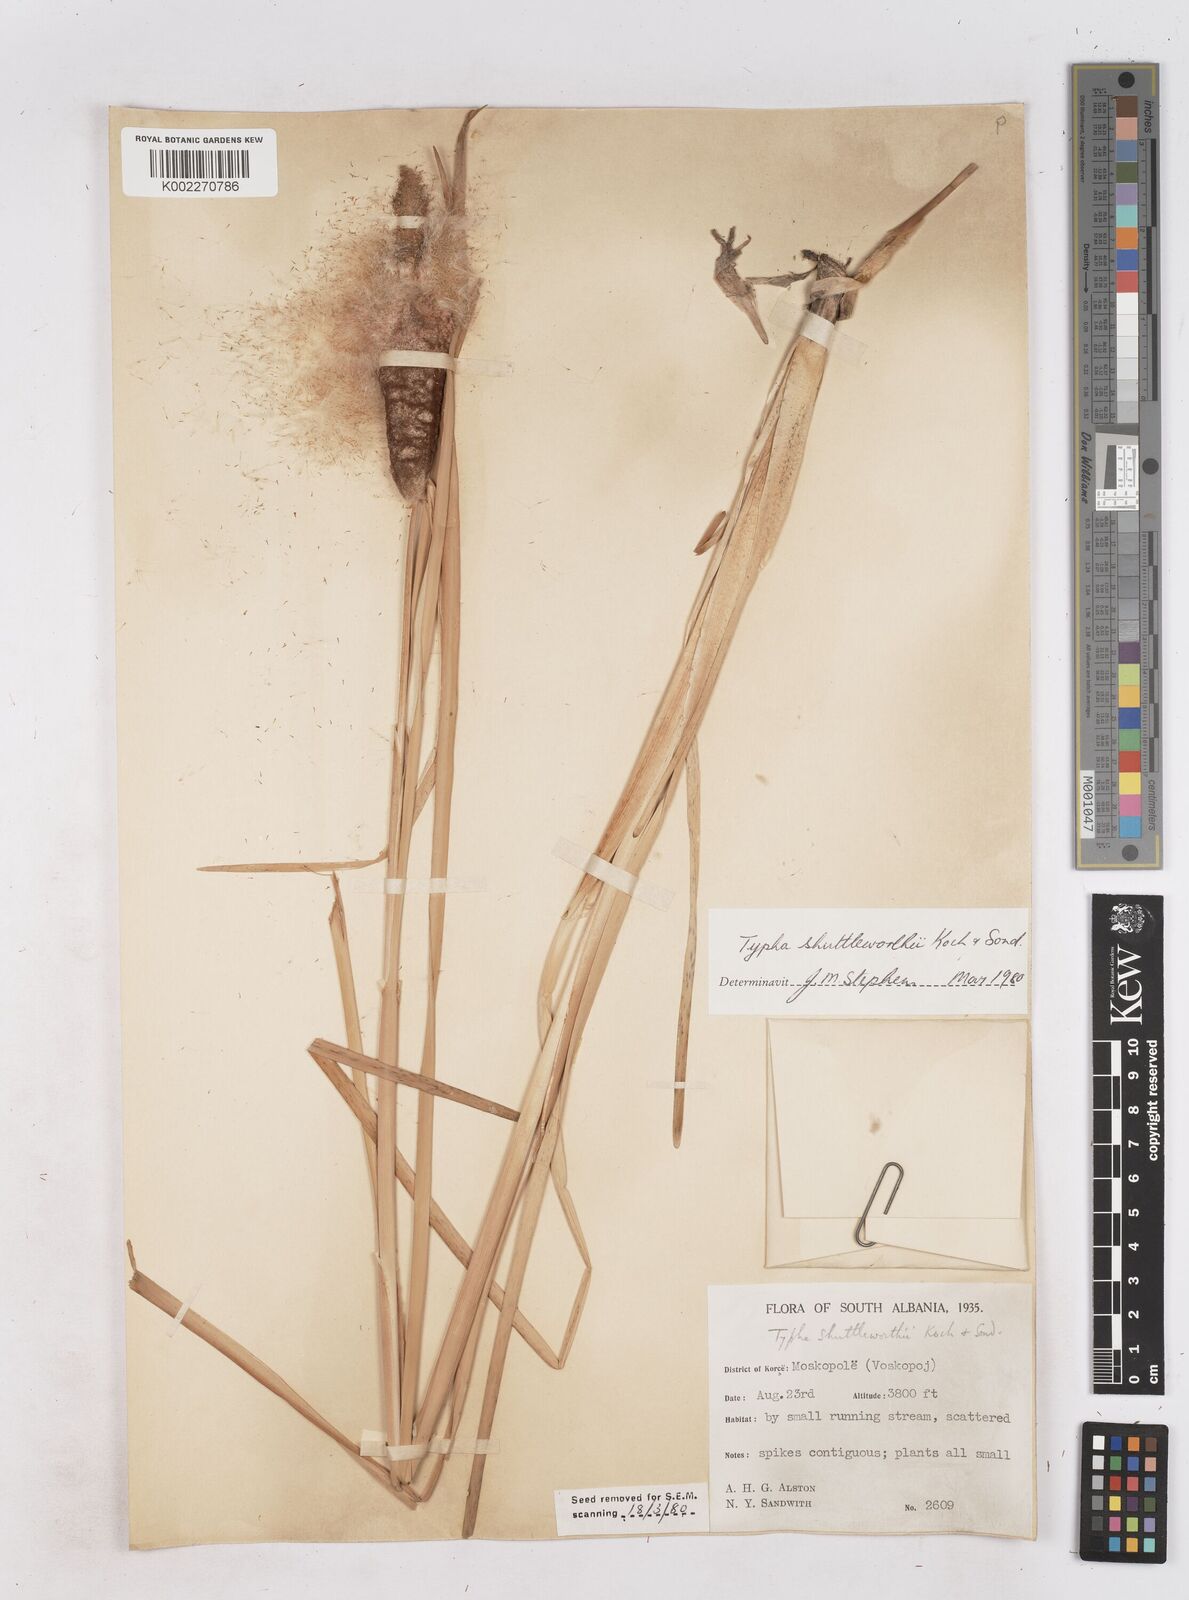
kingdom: Plantae
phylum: Tracheophyta
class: Liliopsida
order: Poales
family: Typhaceae
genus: Typha
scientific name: Typha shuttleworthii
